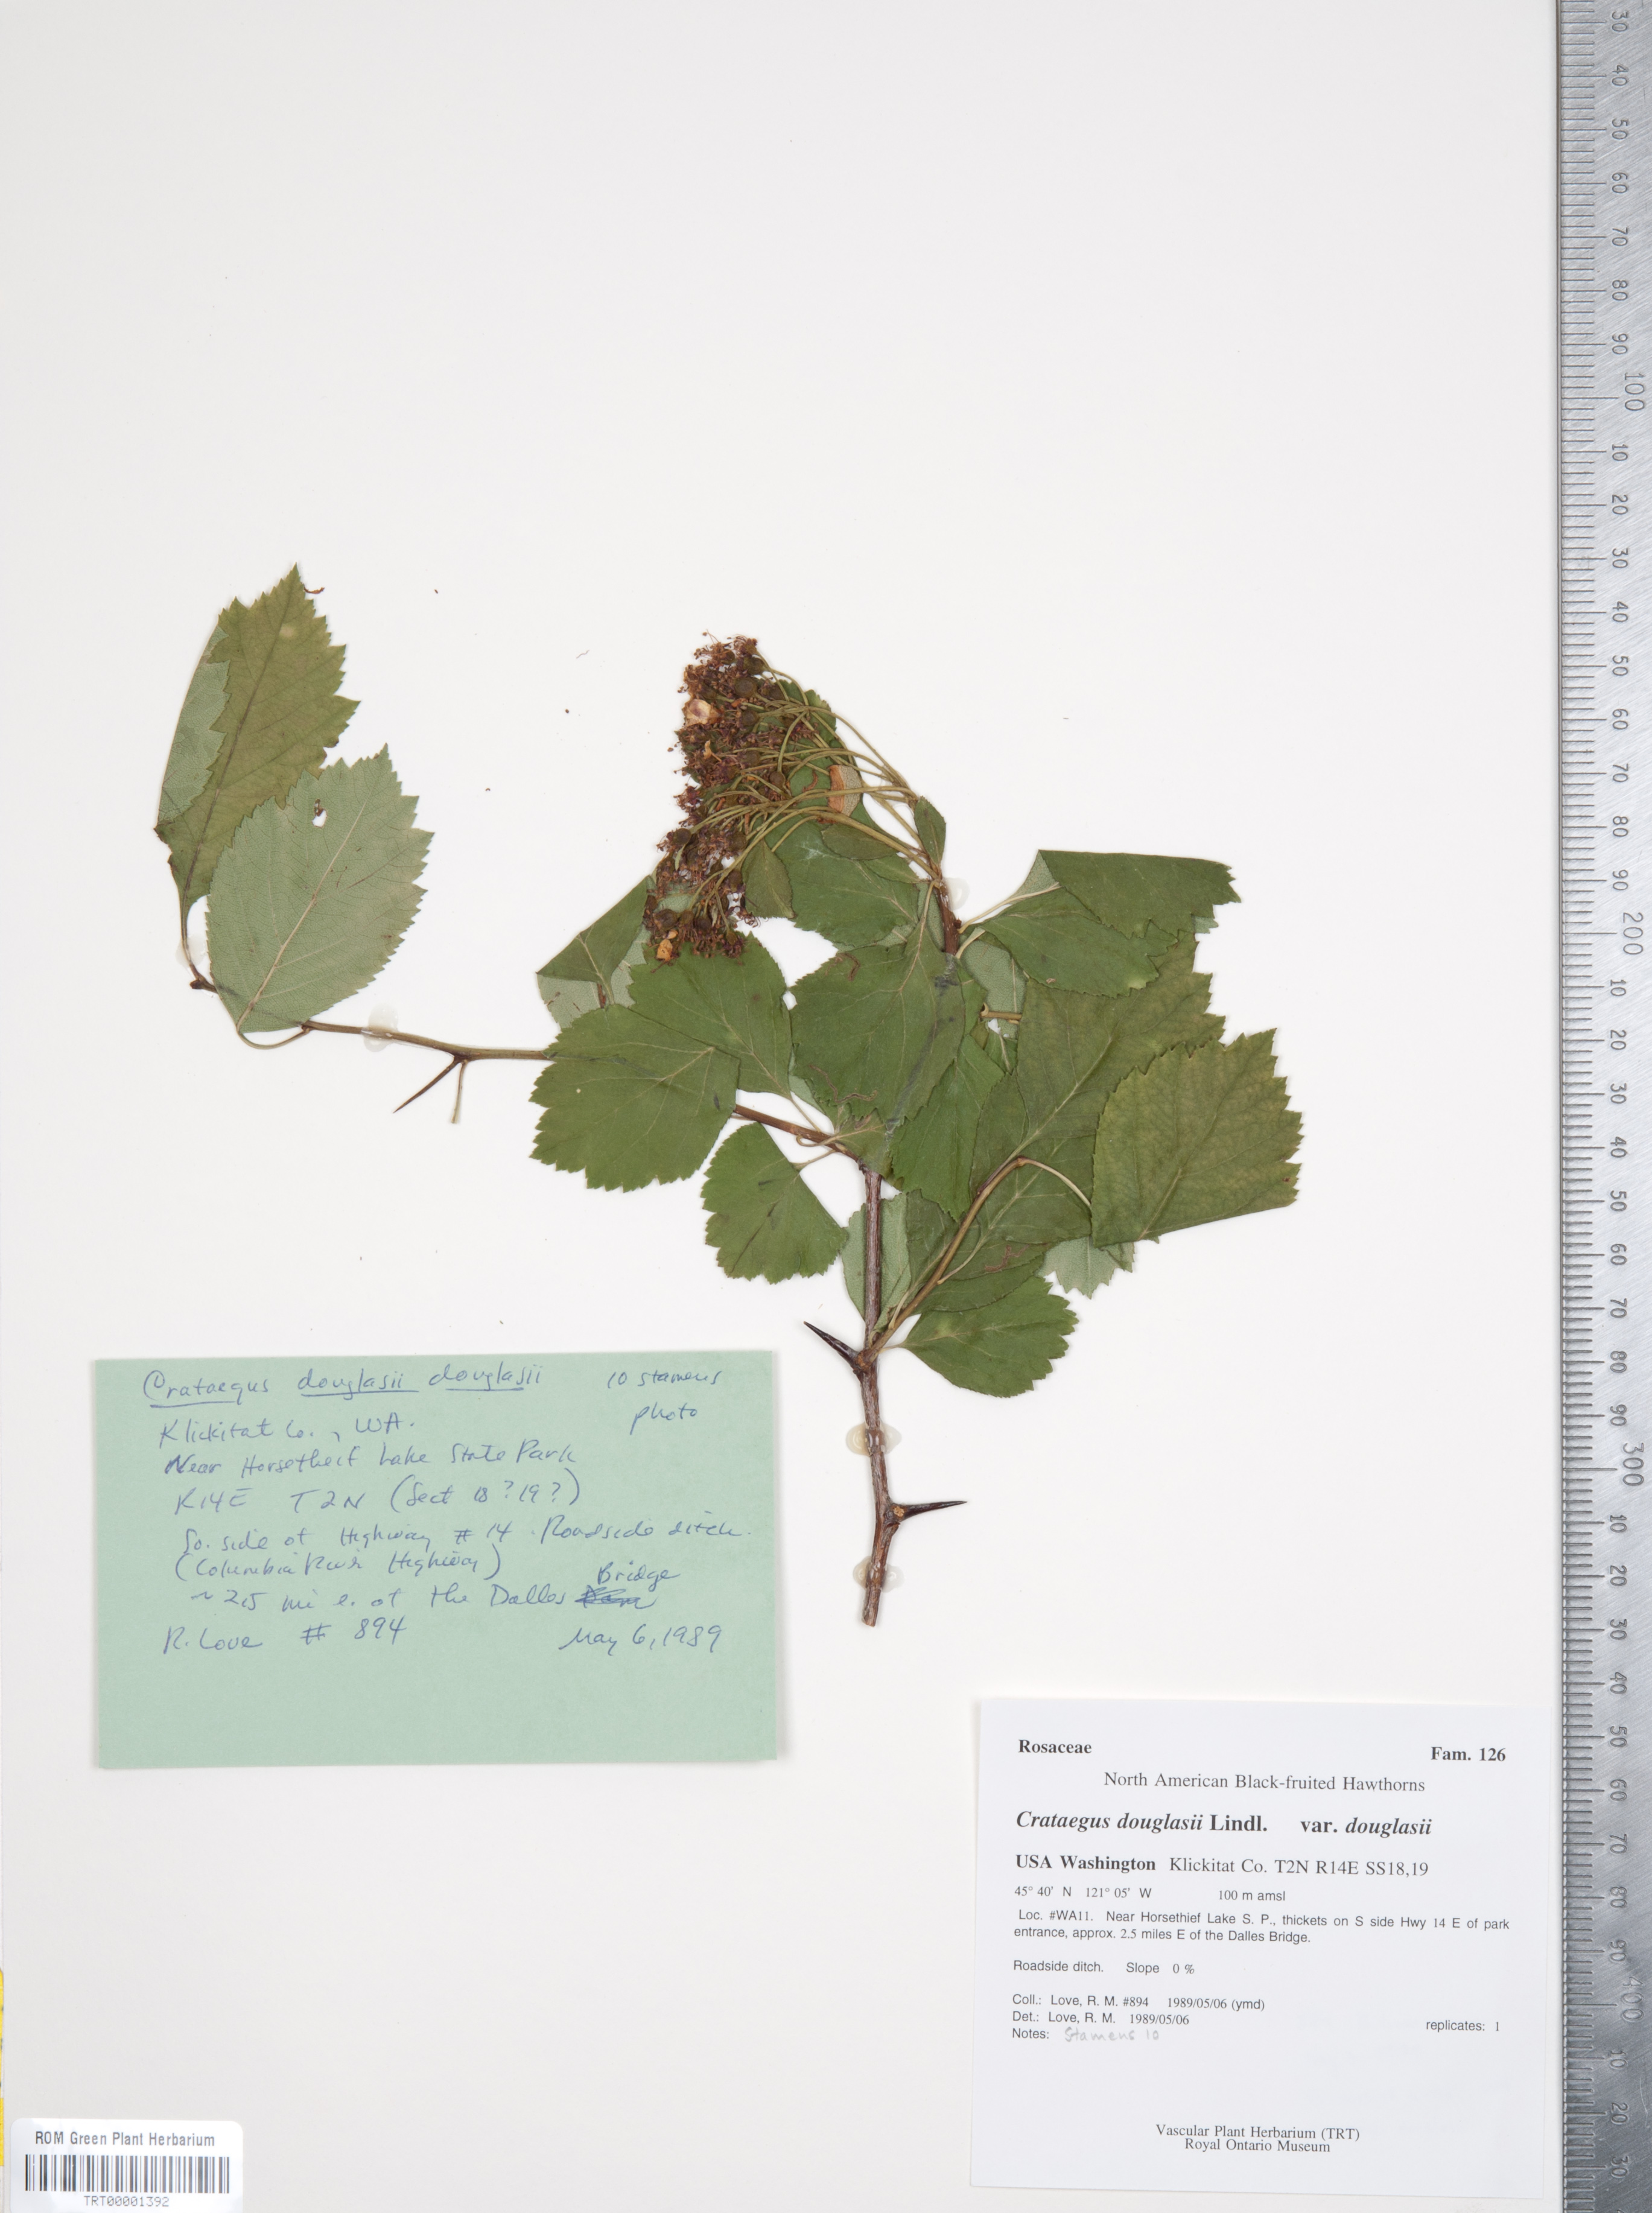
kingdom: Plantae
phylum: Tracheophyta
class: Magnoliopsida
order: Rosales
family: Rosaceae
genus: Crataegus
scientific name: Crataegus douglasii
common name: Black hawthorn
